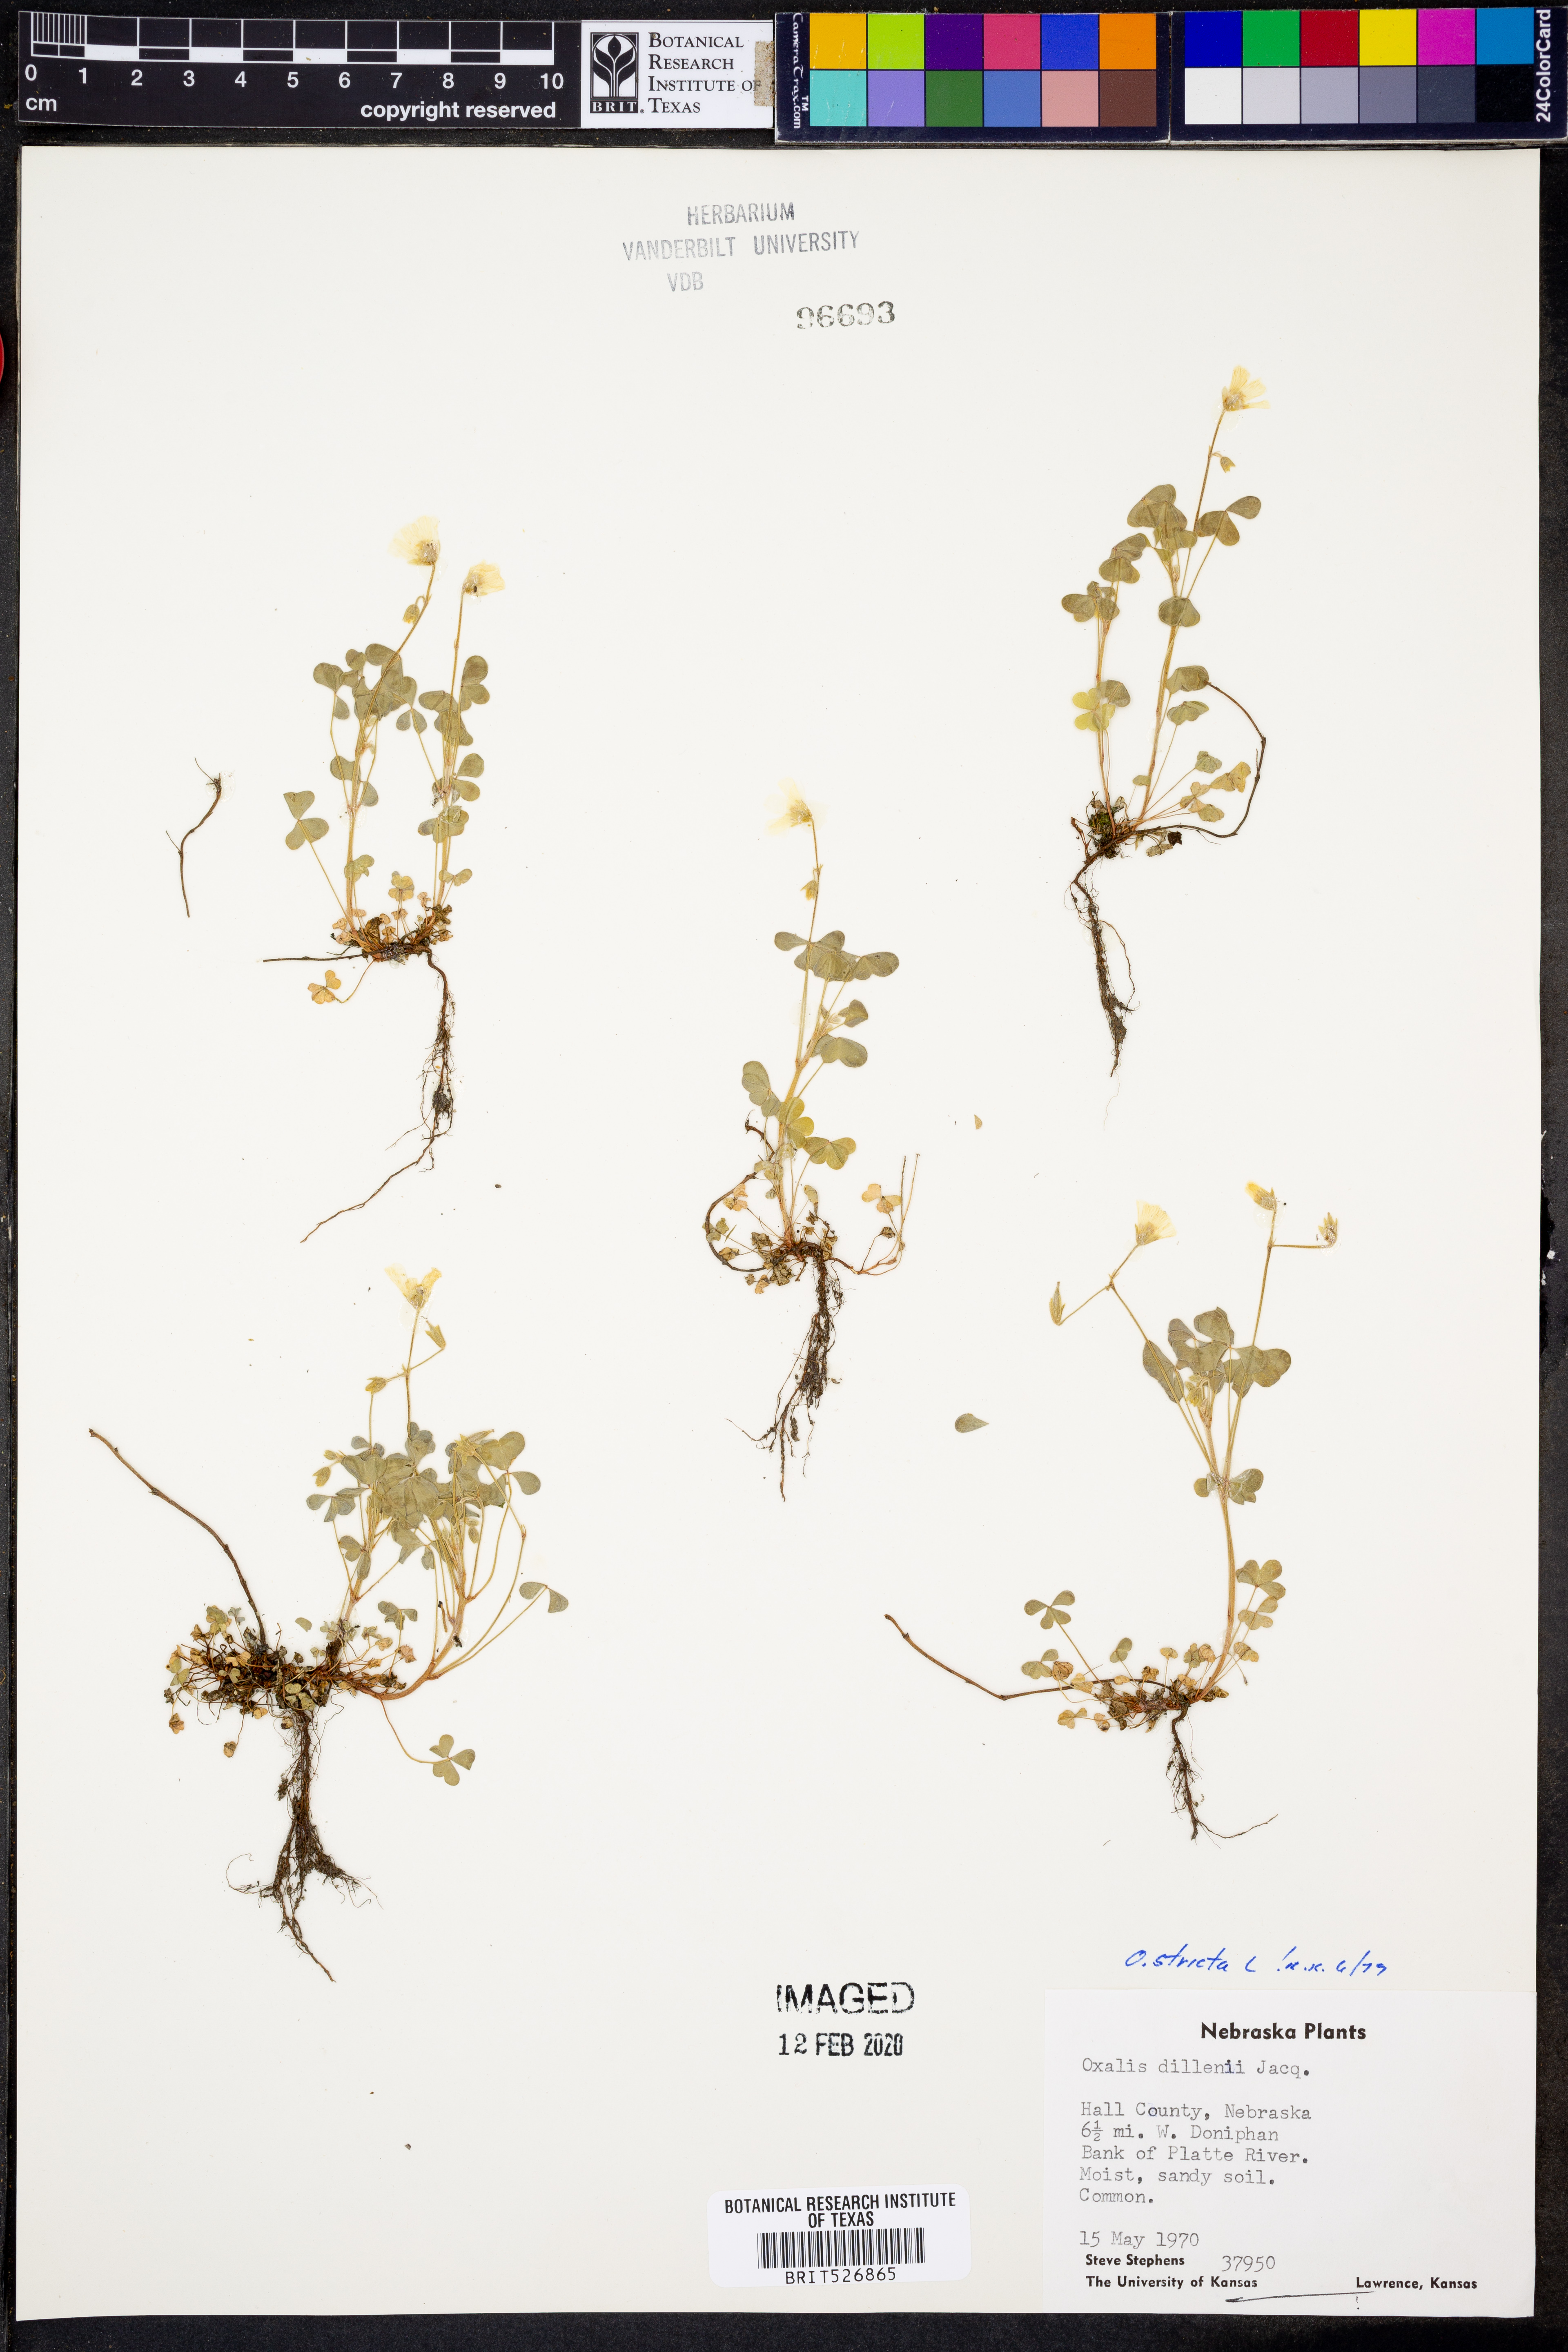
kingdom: Plantae
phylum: Tracheophyta
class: Magnoliopsida
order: Oxalidales
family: Oxalidaceae
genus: Oxalis
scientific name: Oxalis stricta
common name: Upright yellow-sorrel
